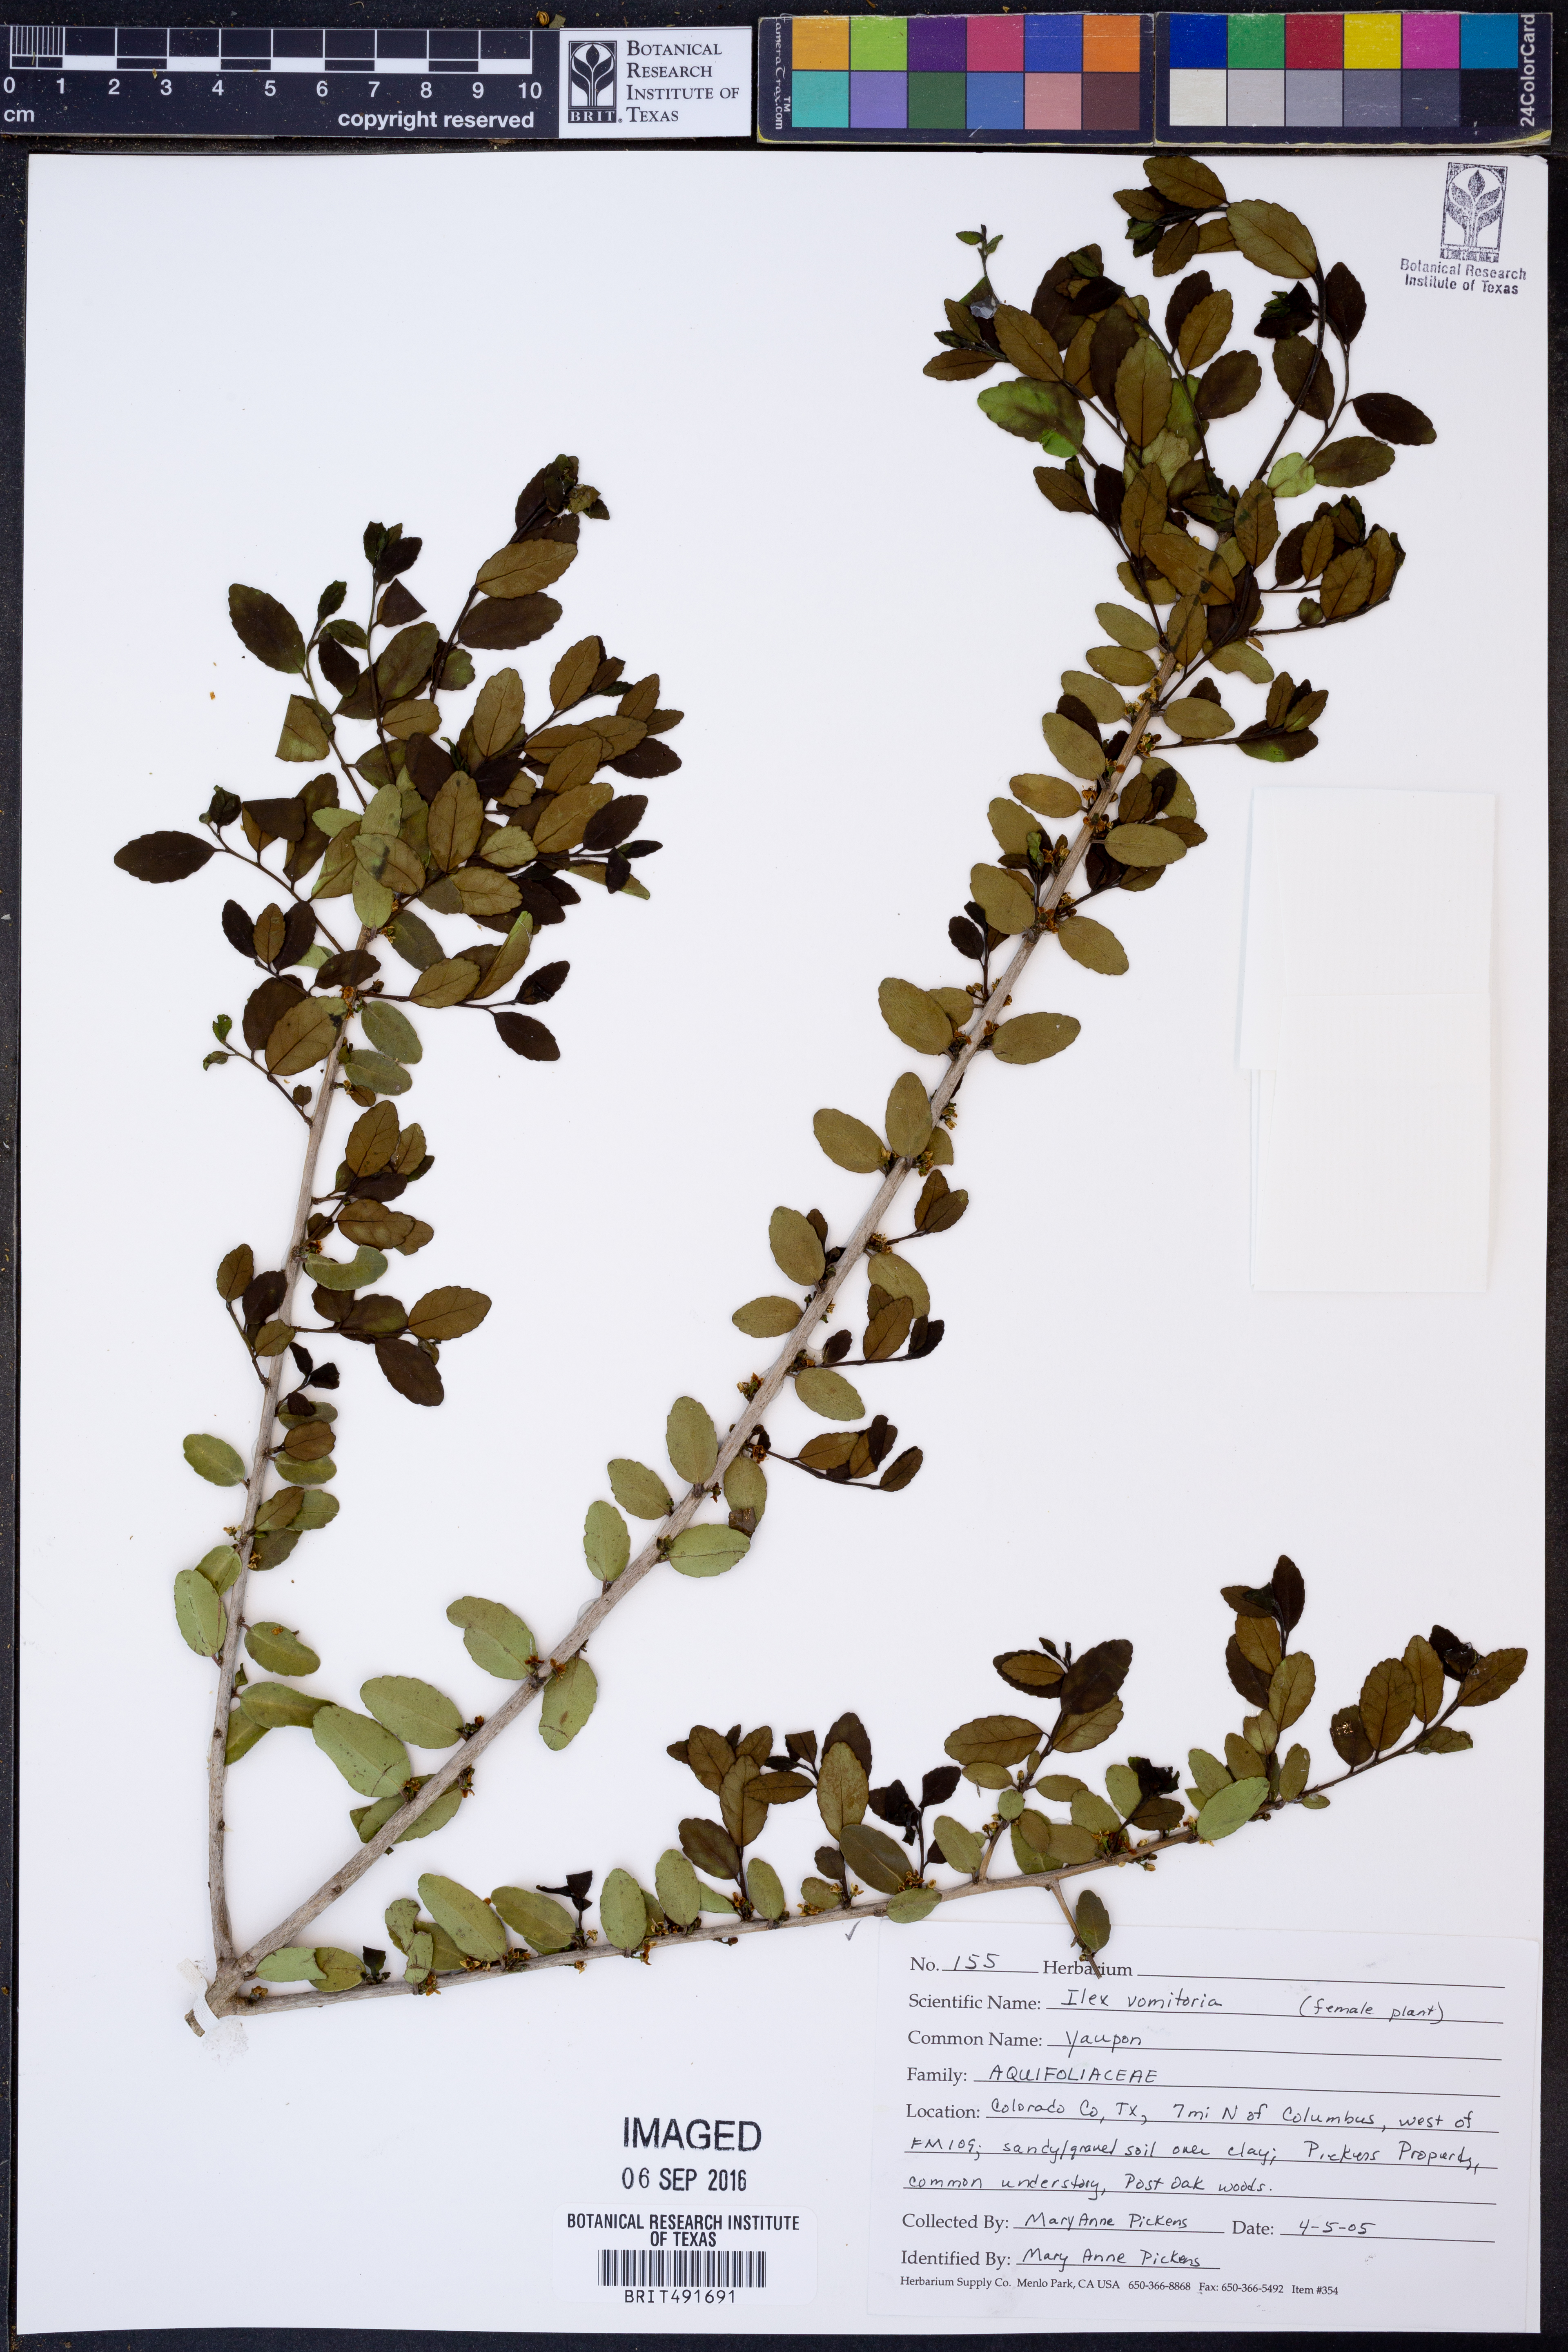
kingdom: Plantae
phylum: Tracheophyta
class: Magnoliopsida
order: Aquifoliales
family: Aquifoliaceae
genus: Ilex
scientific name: Ilex vomitoria
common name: Yaupon holly
